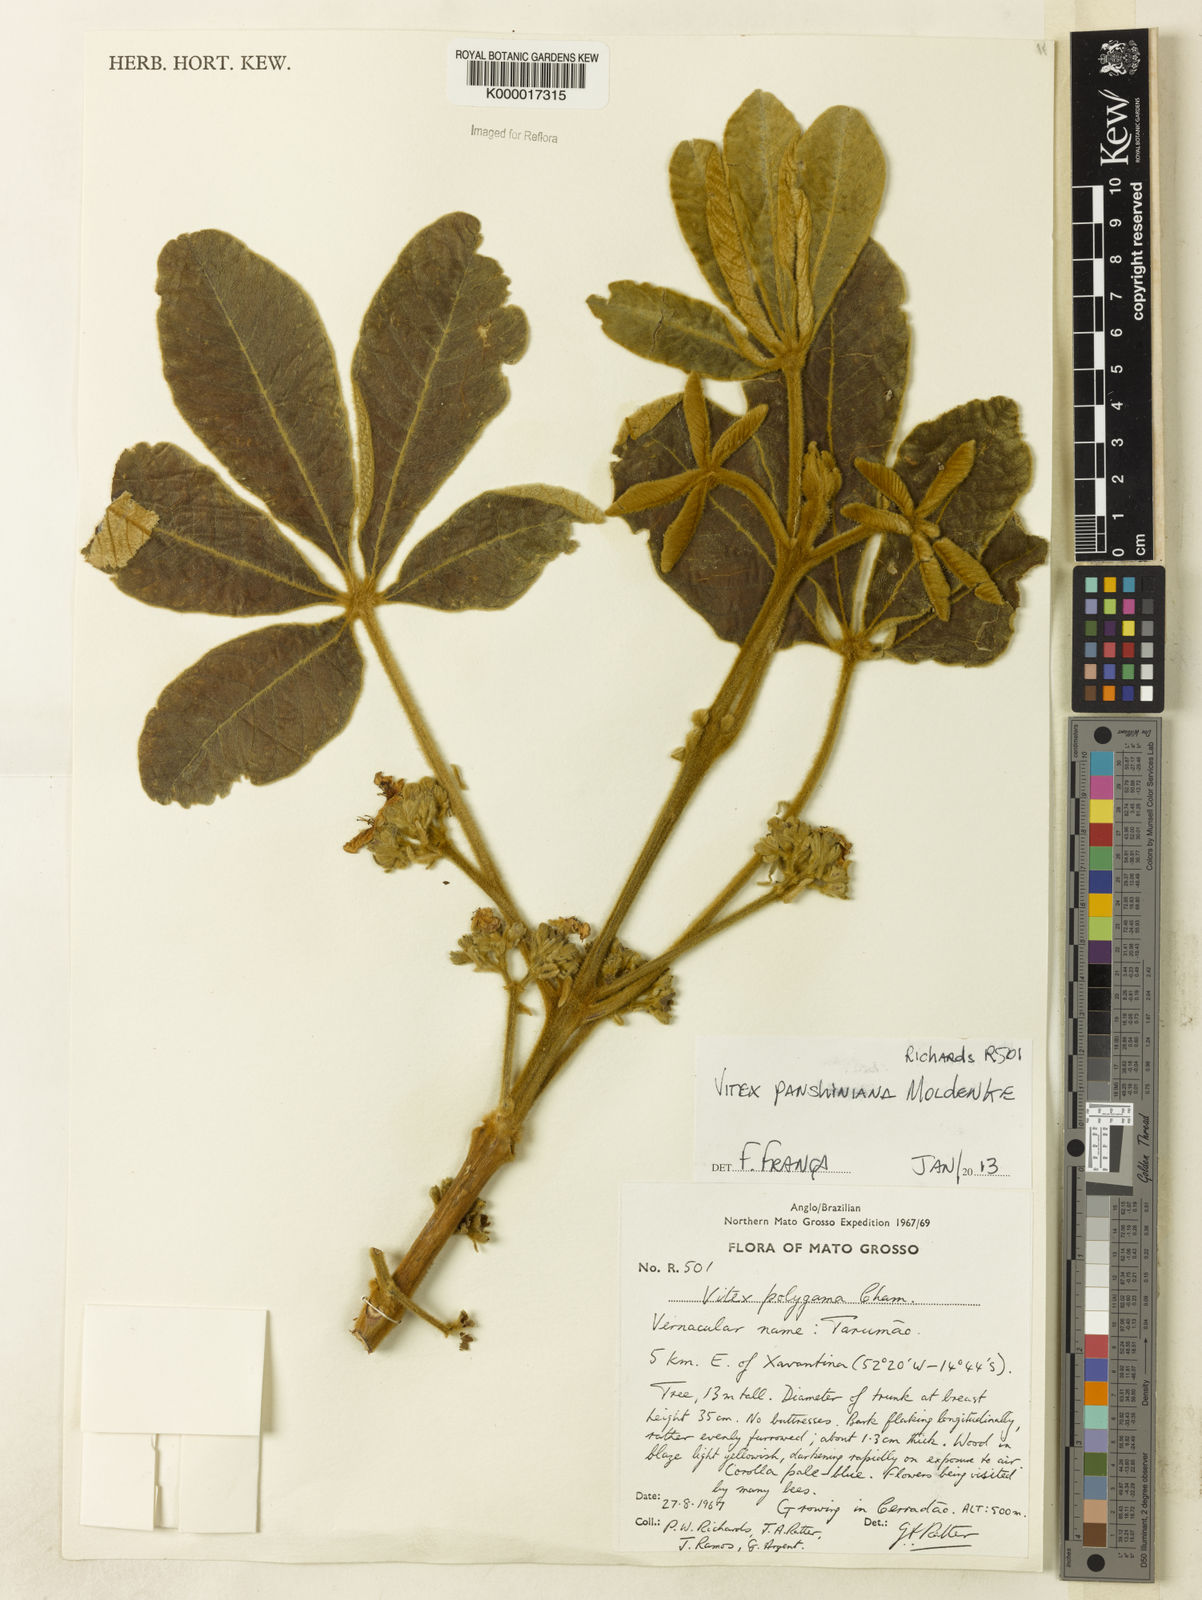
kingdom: Plantae
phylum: Tracheophyta
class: Magnoliopsida
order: Lamiales
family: Lamiaceae
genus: Vitex
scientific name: Vitex panshiniana
